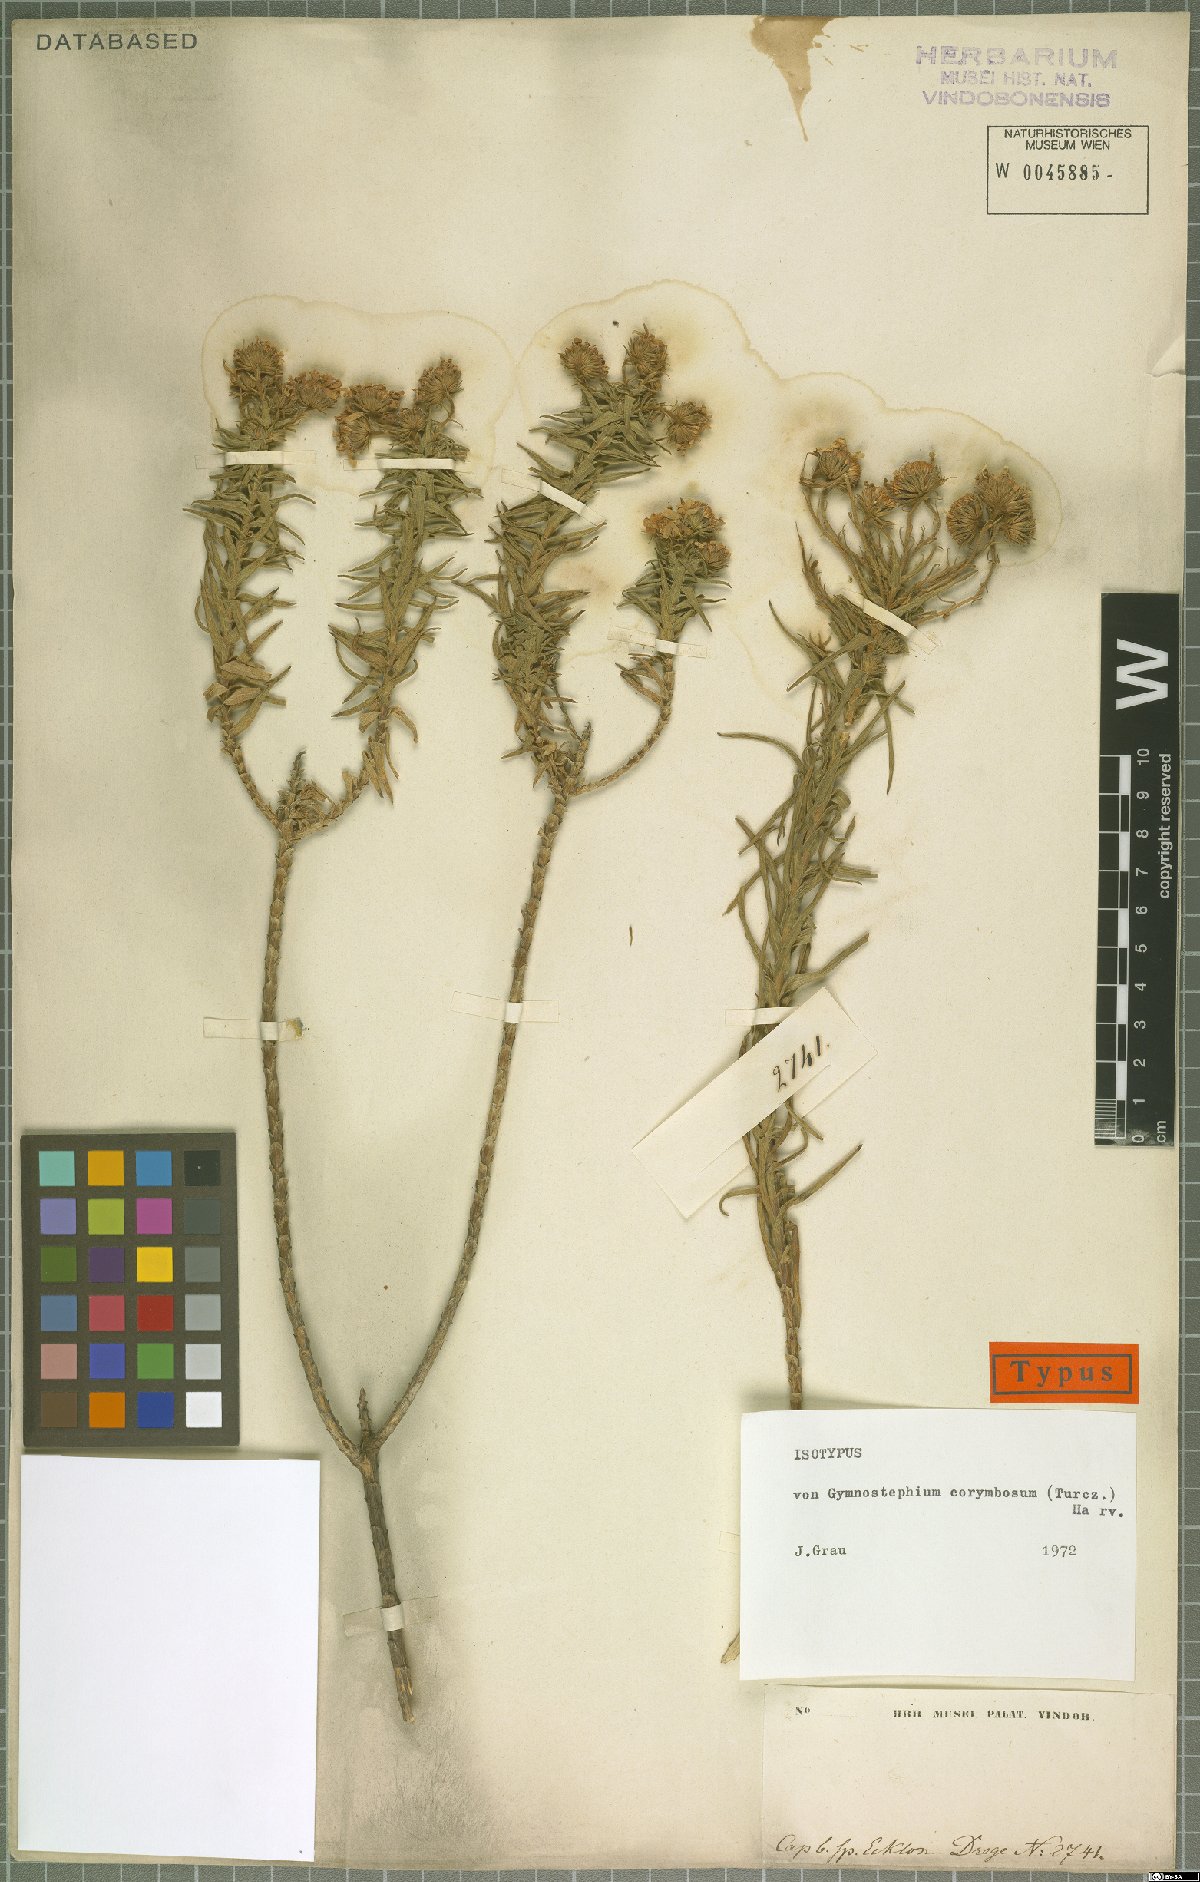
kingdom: Plantae
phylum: Tracheophyta
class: Magnoliopsida
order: Asterales
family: Asteraceae
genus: Zyrphelis
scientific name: Zyrphelis nervosa
